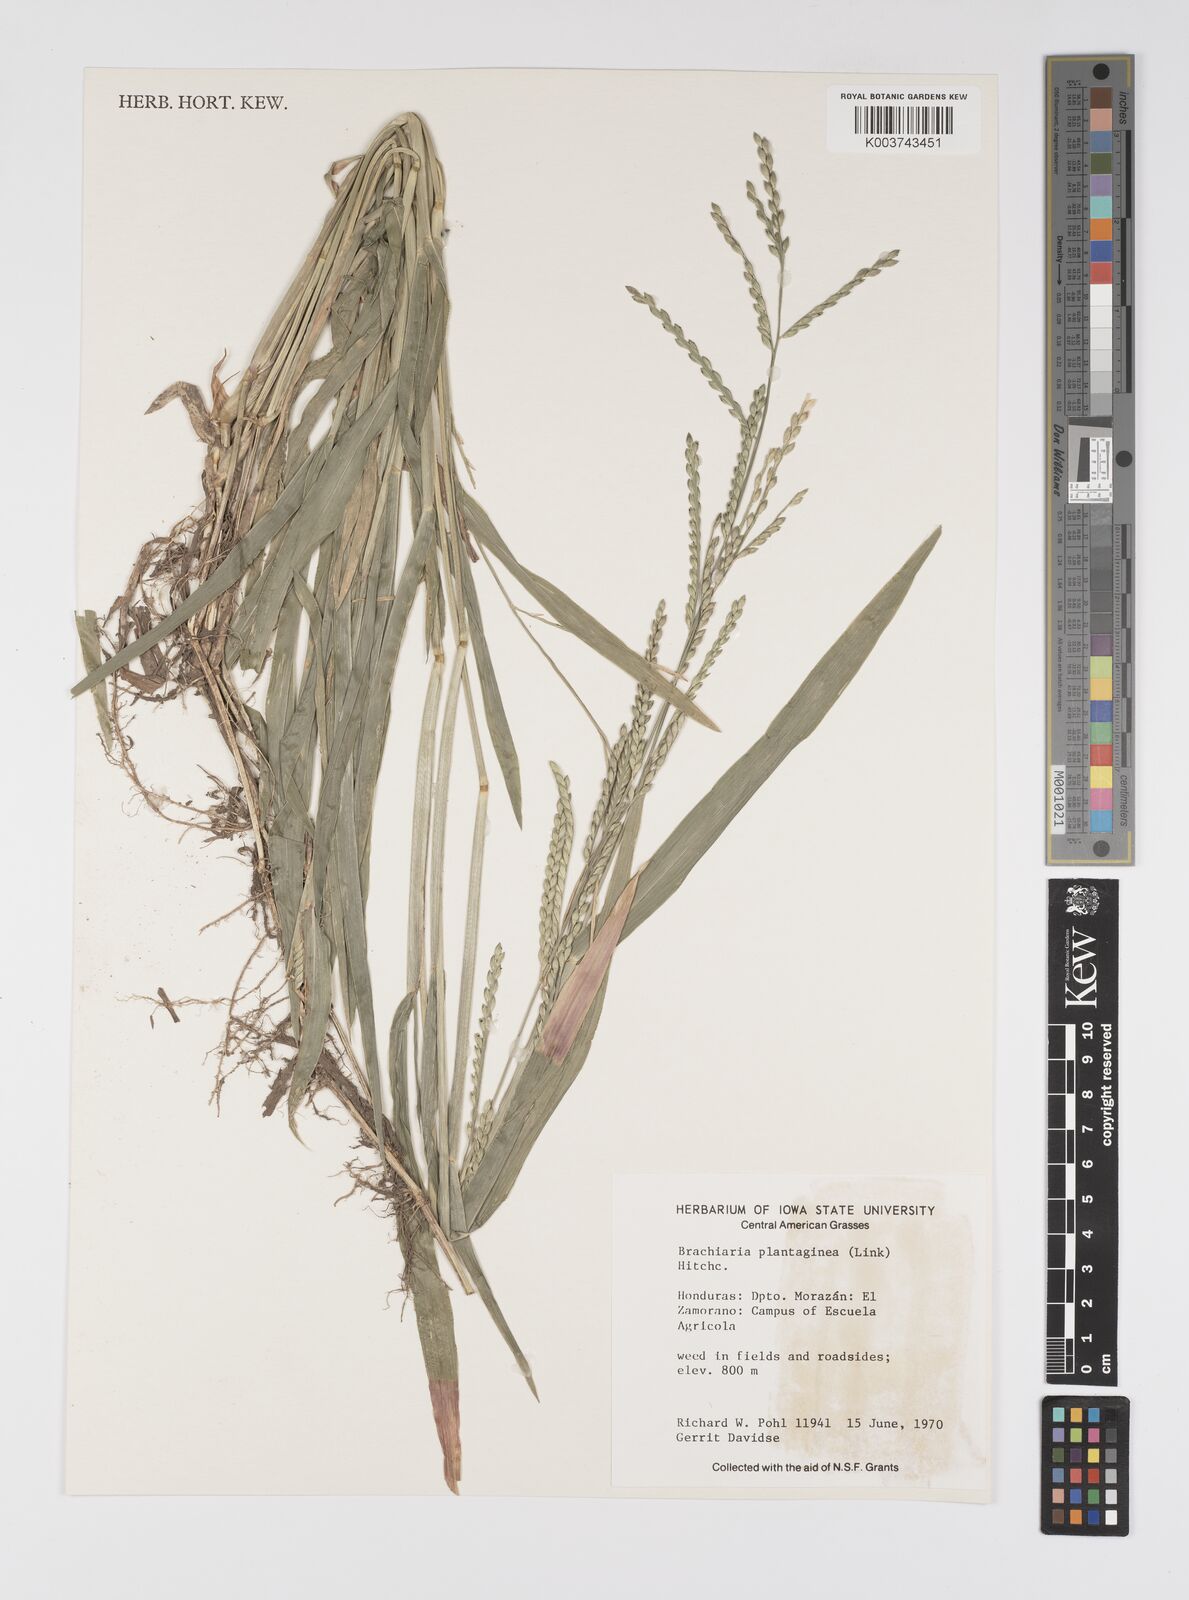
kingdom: Plantae
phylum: Tracheophyta
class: Liliopsida
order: Poales
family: Poaceae
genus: Urochloa
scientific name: Urochloa plantaginea
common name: Plantain signalgrass
